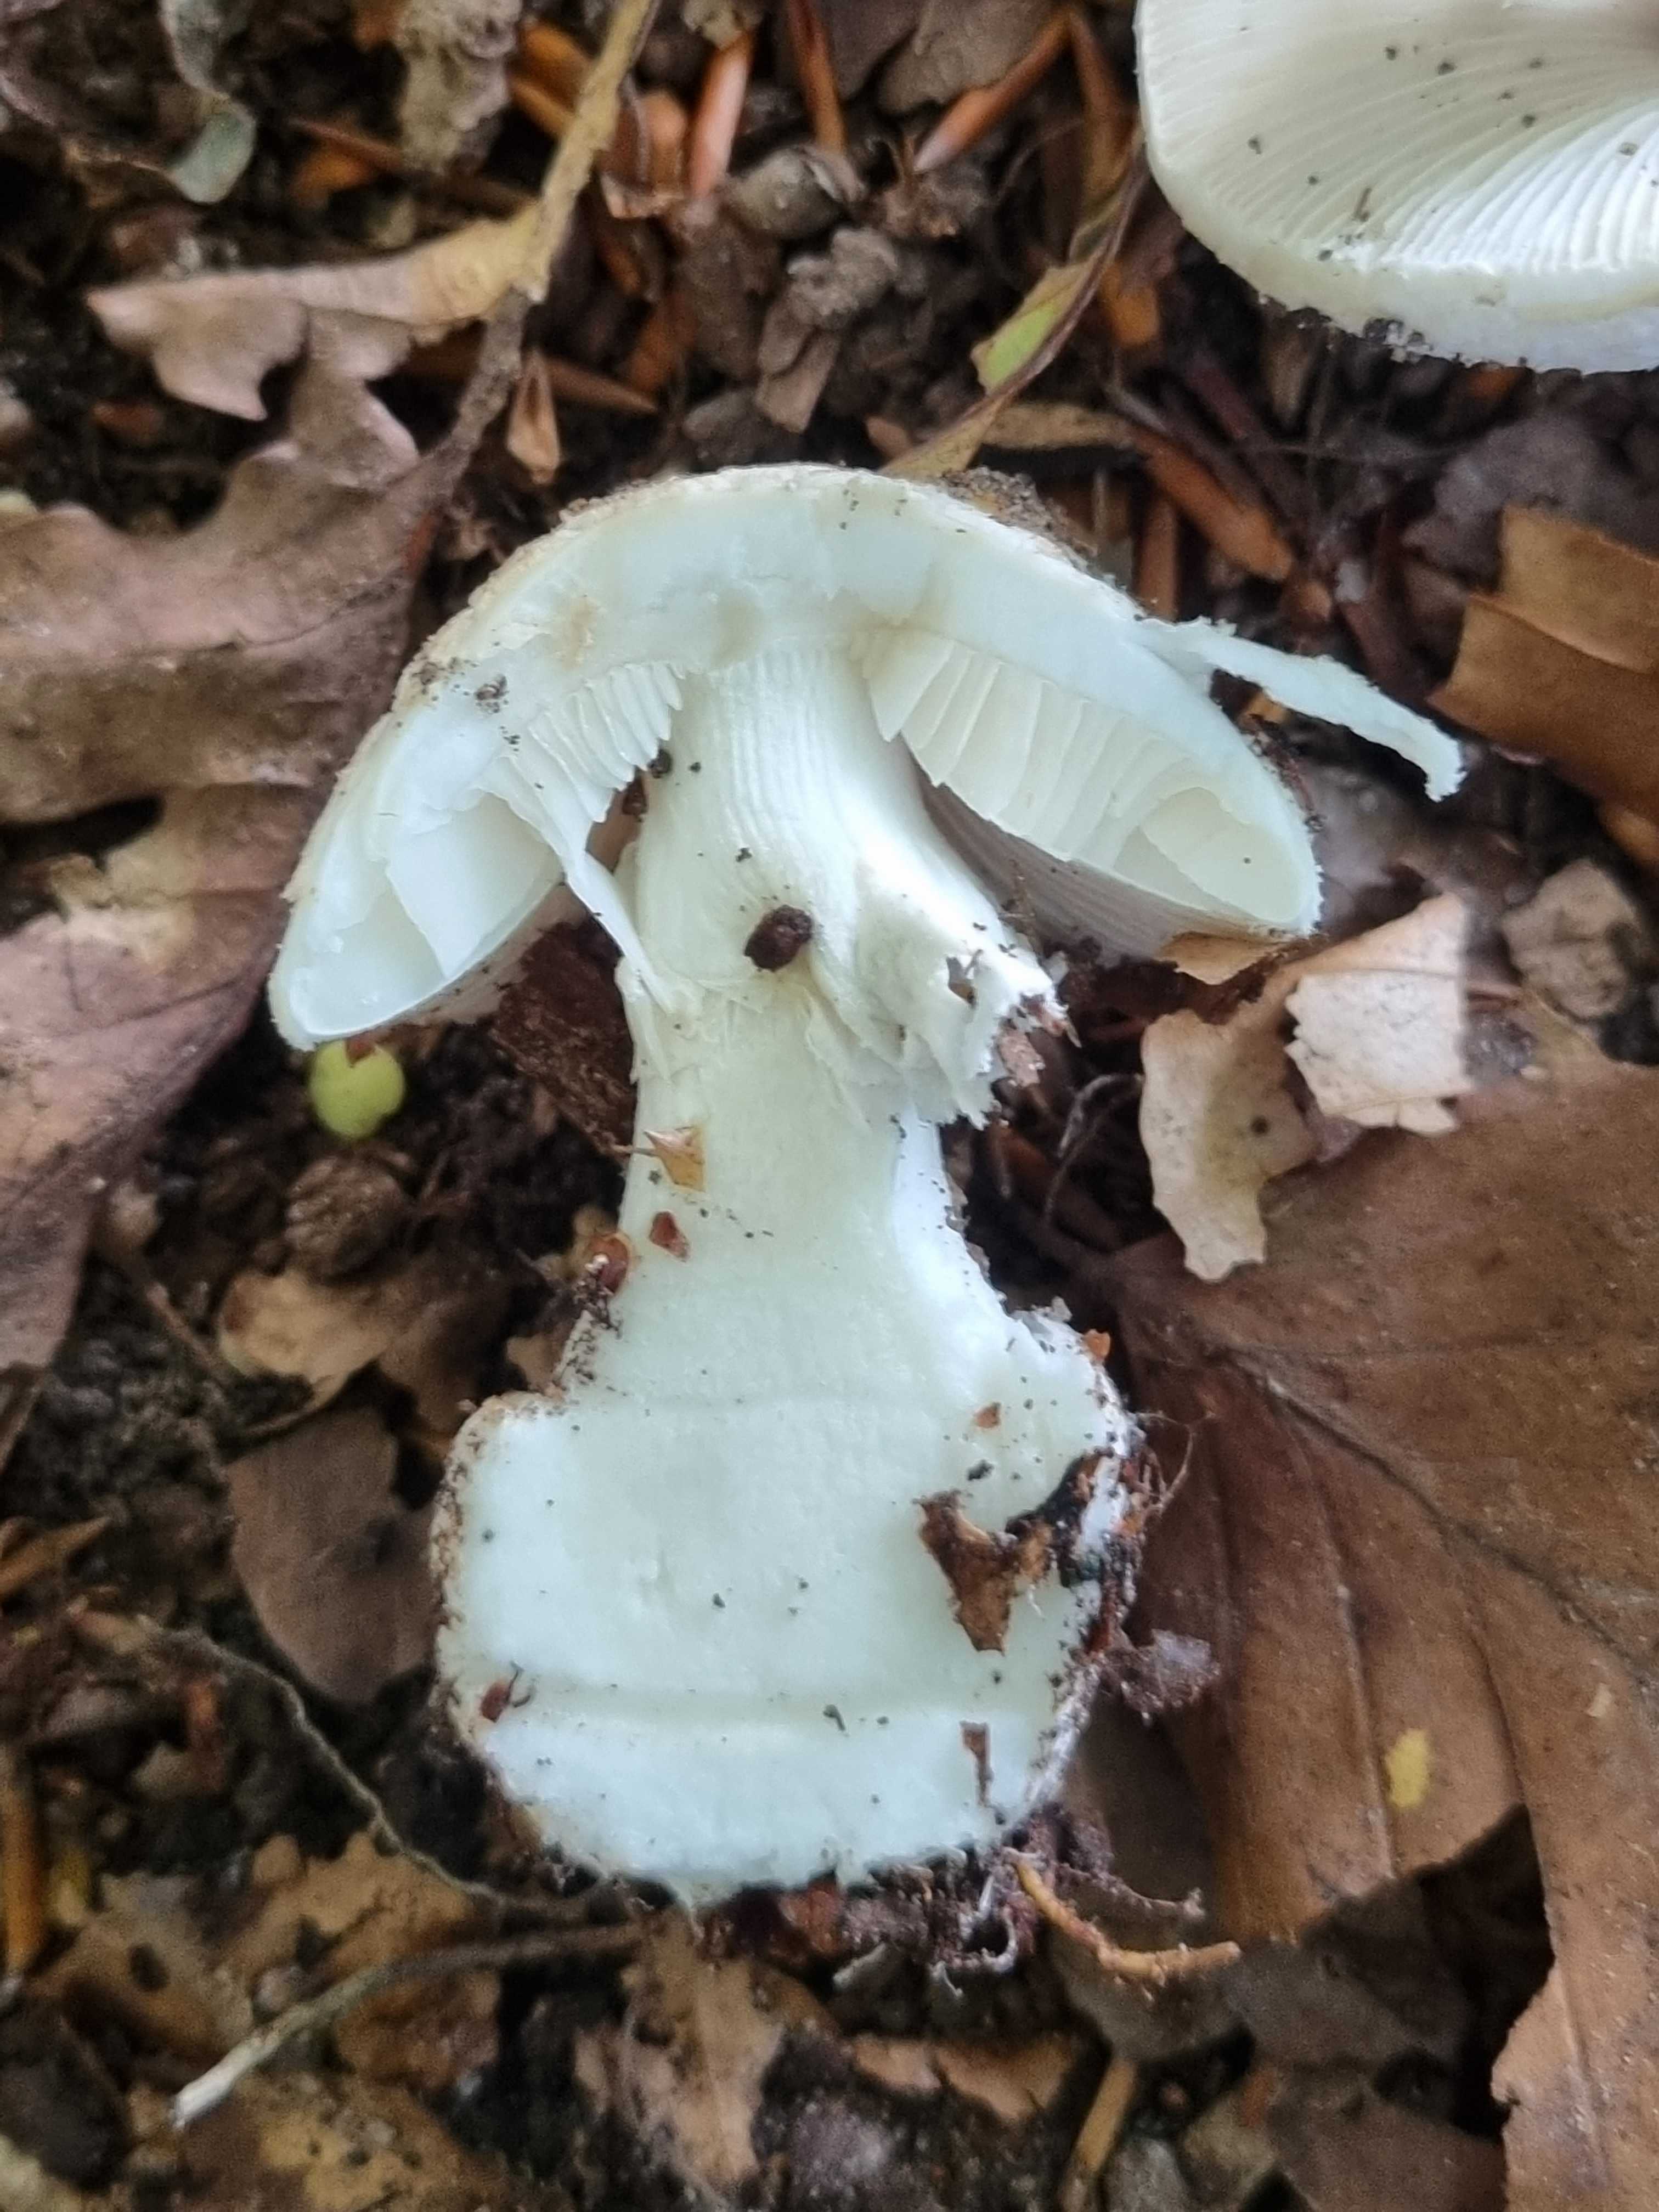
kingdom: Fungi
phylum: Basidiomycota
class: Agaricomycetes
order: Agaricales
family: Amanitaceae
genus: Amanita
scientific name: Amanita citrina
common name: kugleknoldet fluesvamp
